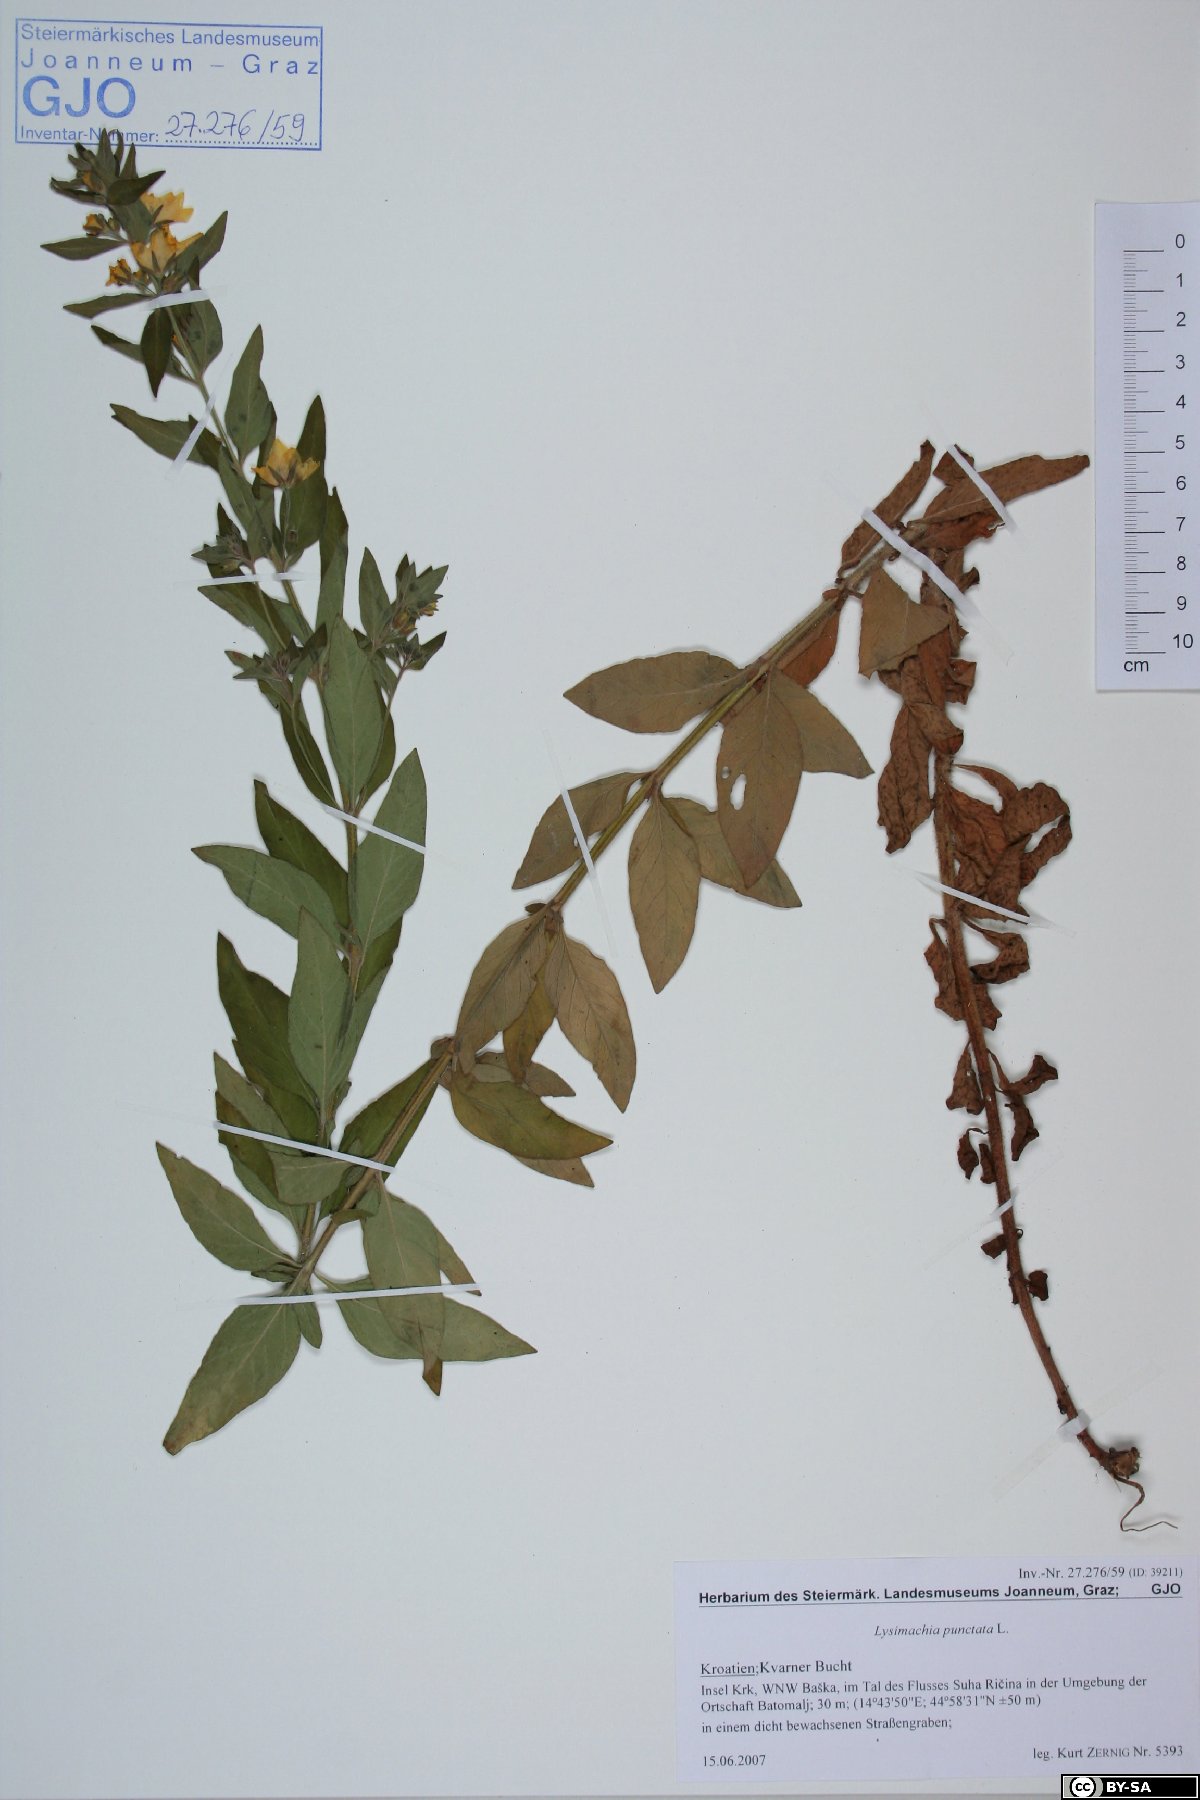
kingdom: Plantae
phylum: Tracheophyta
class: Magnoliopsida
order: Ericales
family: Primulaceae
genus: Lysimachia
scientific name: Lysimachia punctata
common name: Dotted loosestrife
